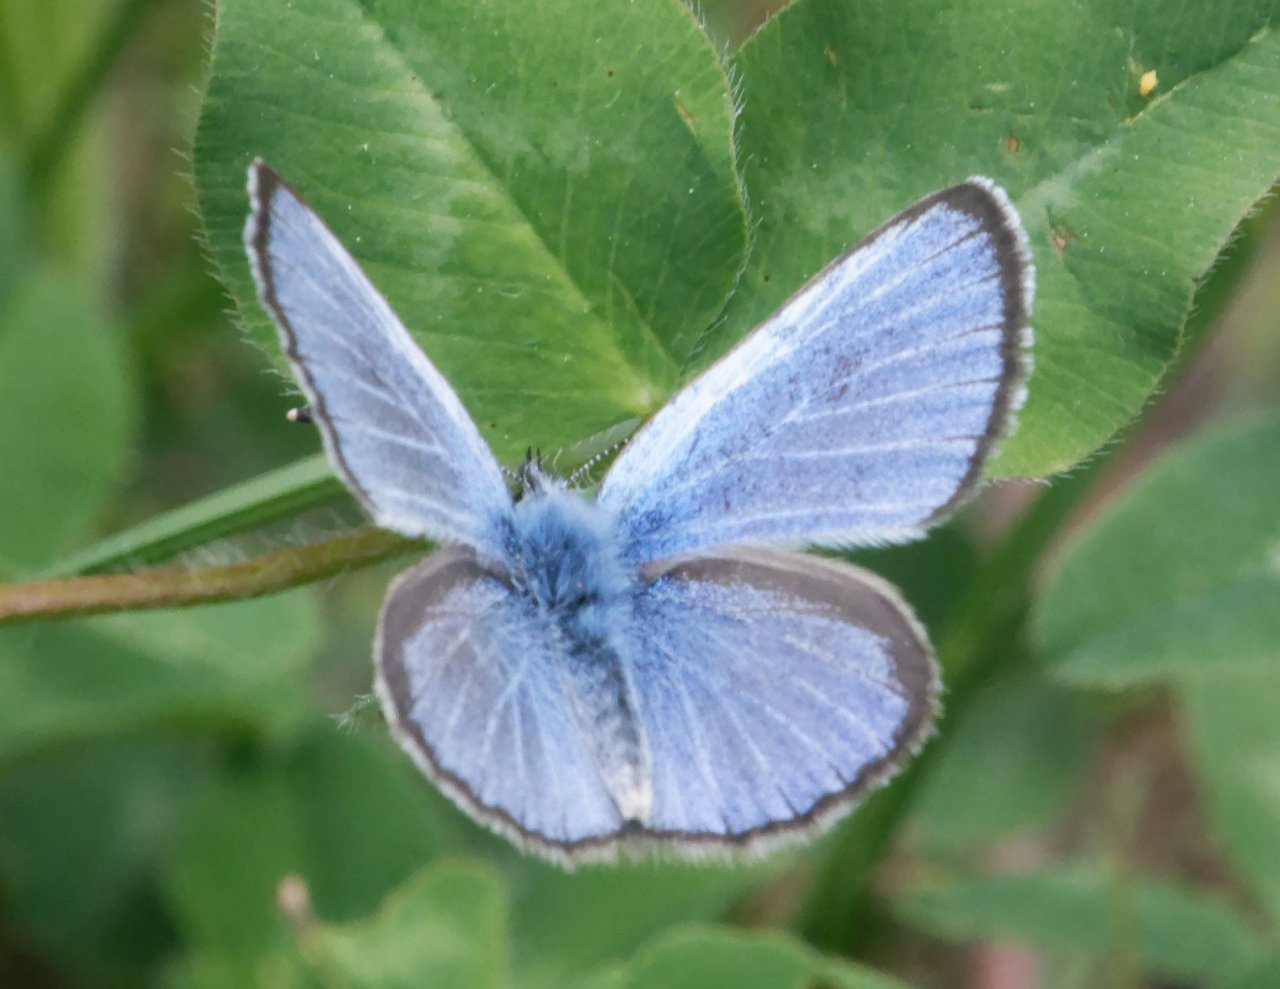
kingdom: Animalia
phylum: Arthropoda
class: Insecta
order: Lepidoptera
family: Lycaenidae
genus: Glaucopsyche
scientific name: Glaucopsyche lygdamus
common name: Silvery Blue
